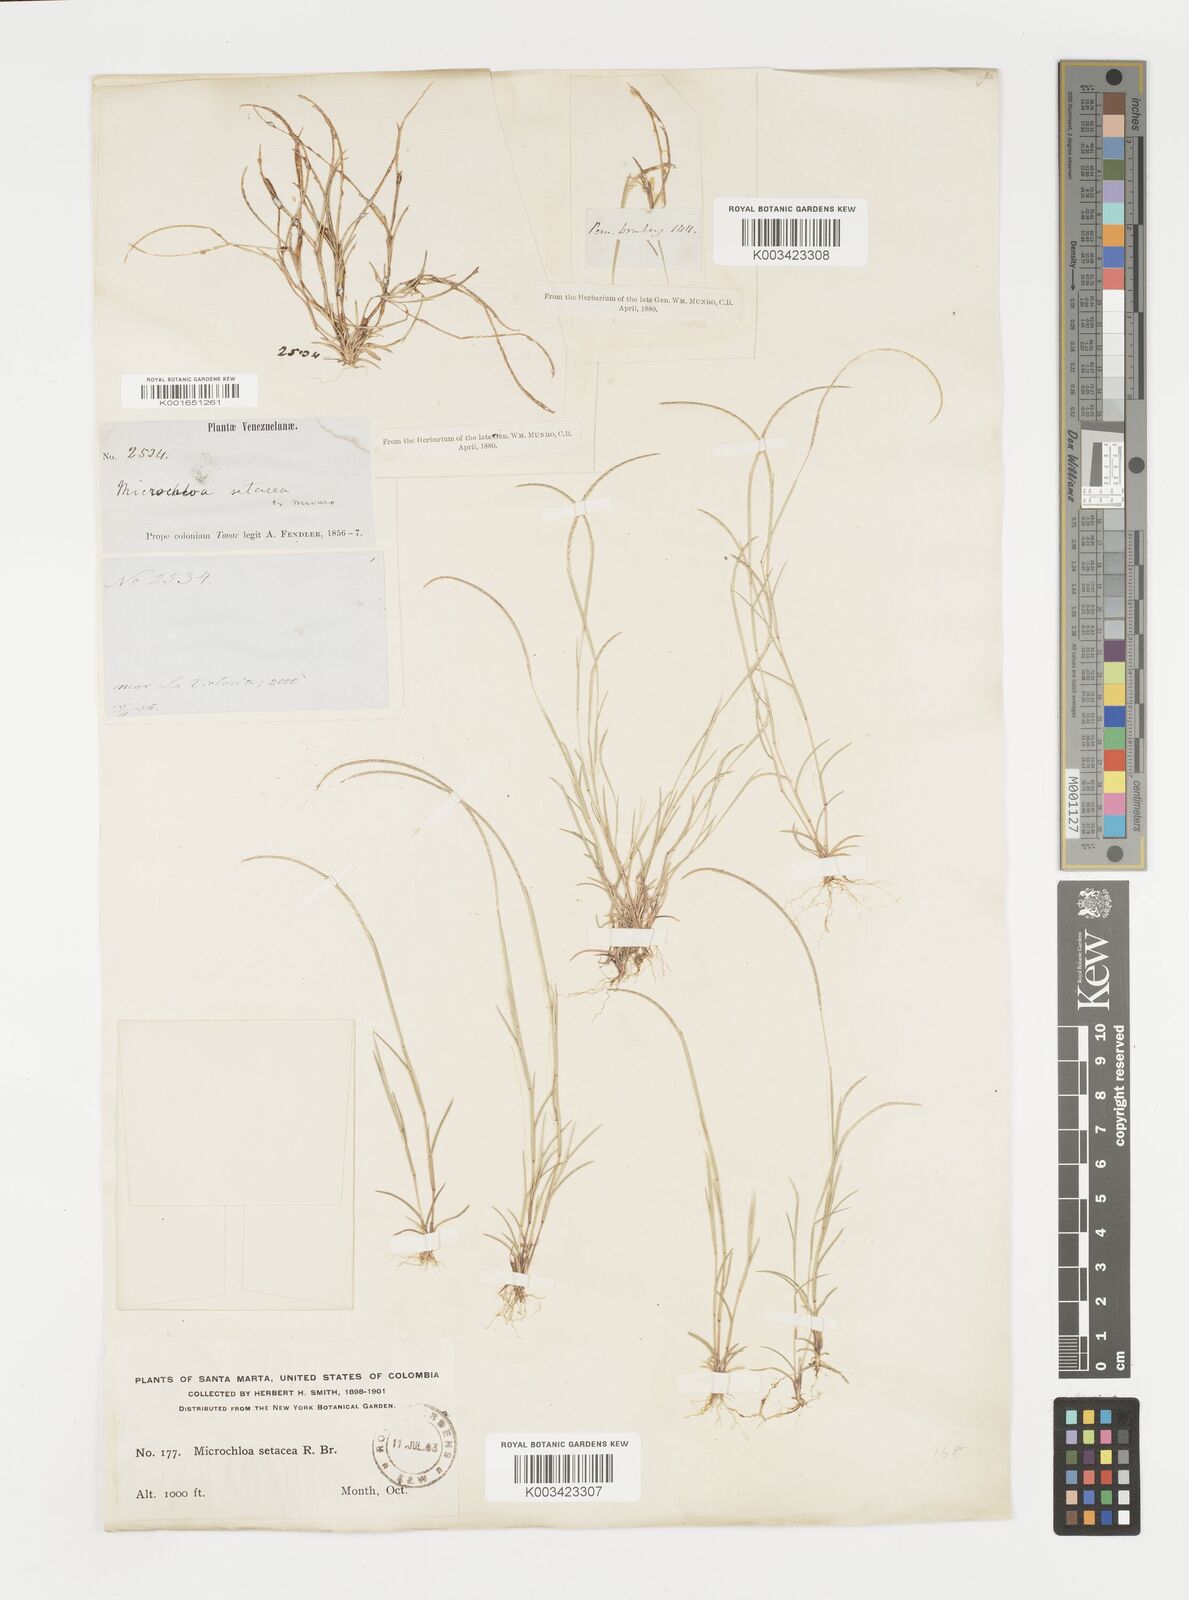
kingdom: Plantae
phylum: Tracheophyta
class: Liliopsida
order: Poales
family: Poaceae
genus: Microchloa
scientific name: Microchloa indica
